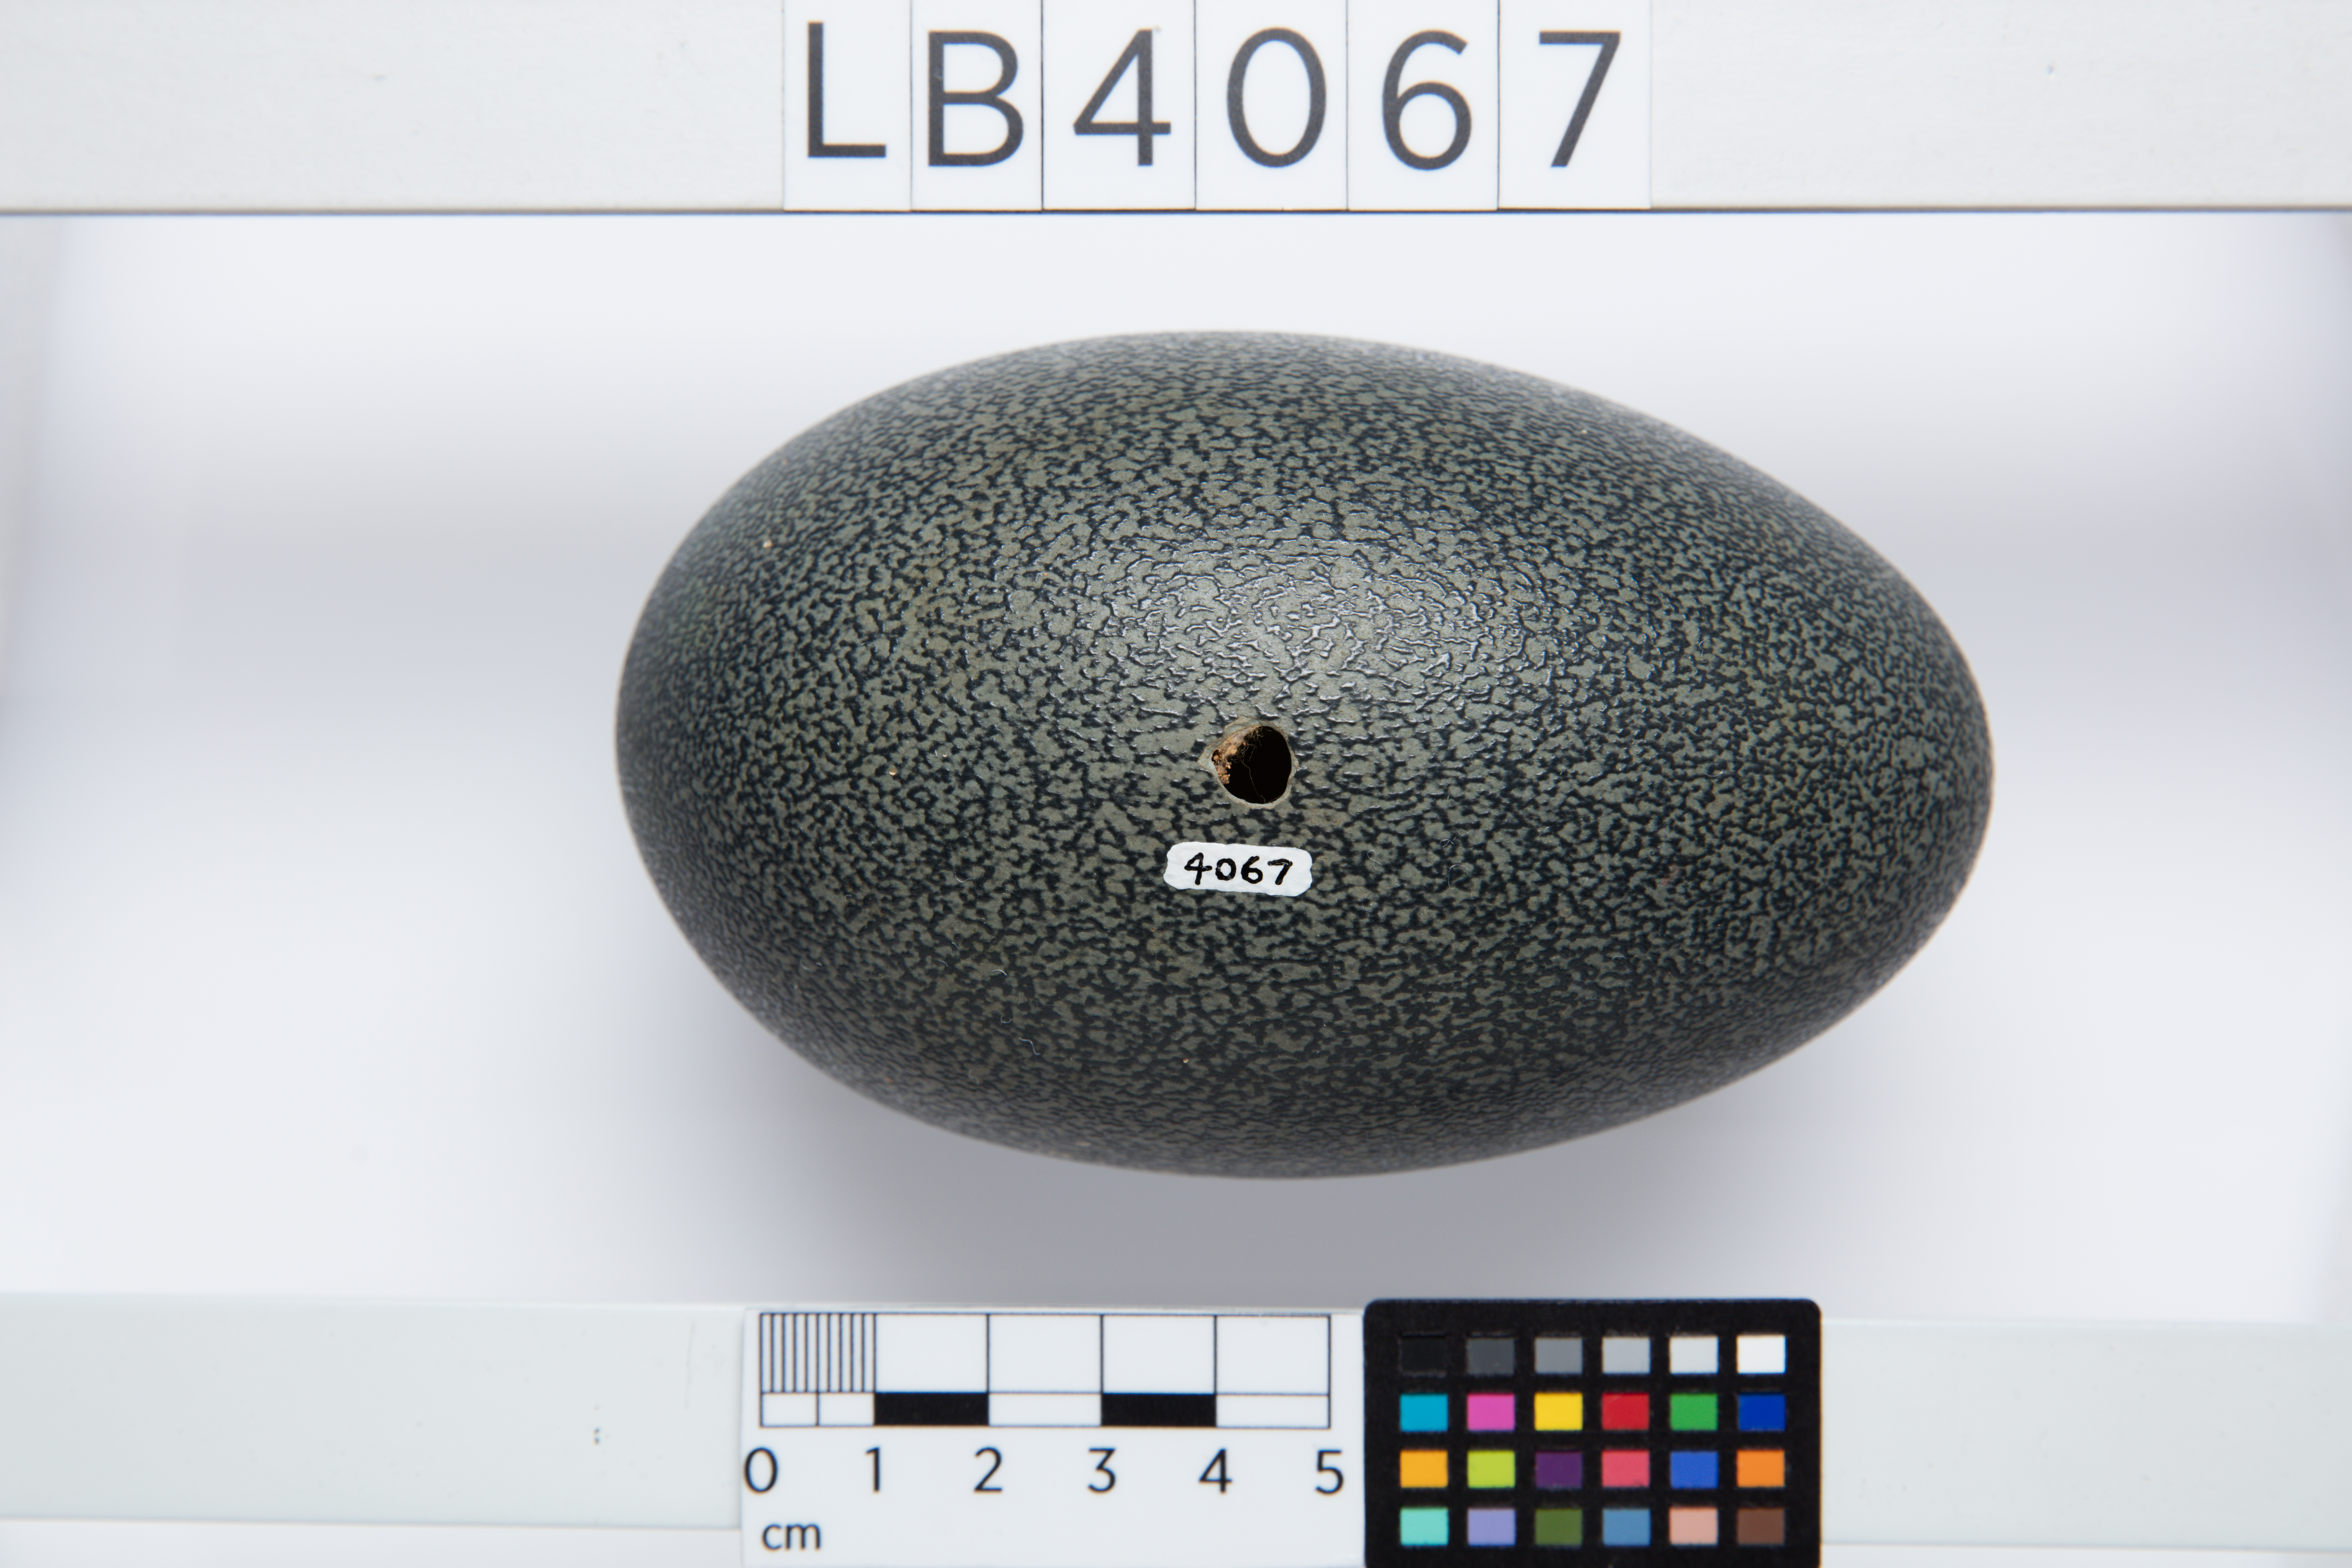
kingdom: Animalia
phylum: Chordata
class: Aves
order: Casuariiformes
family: Dromaiidae
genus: Dromaius
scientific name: Dromaius novaehollandiae
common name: Emu
